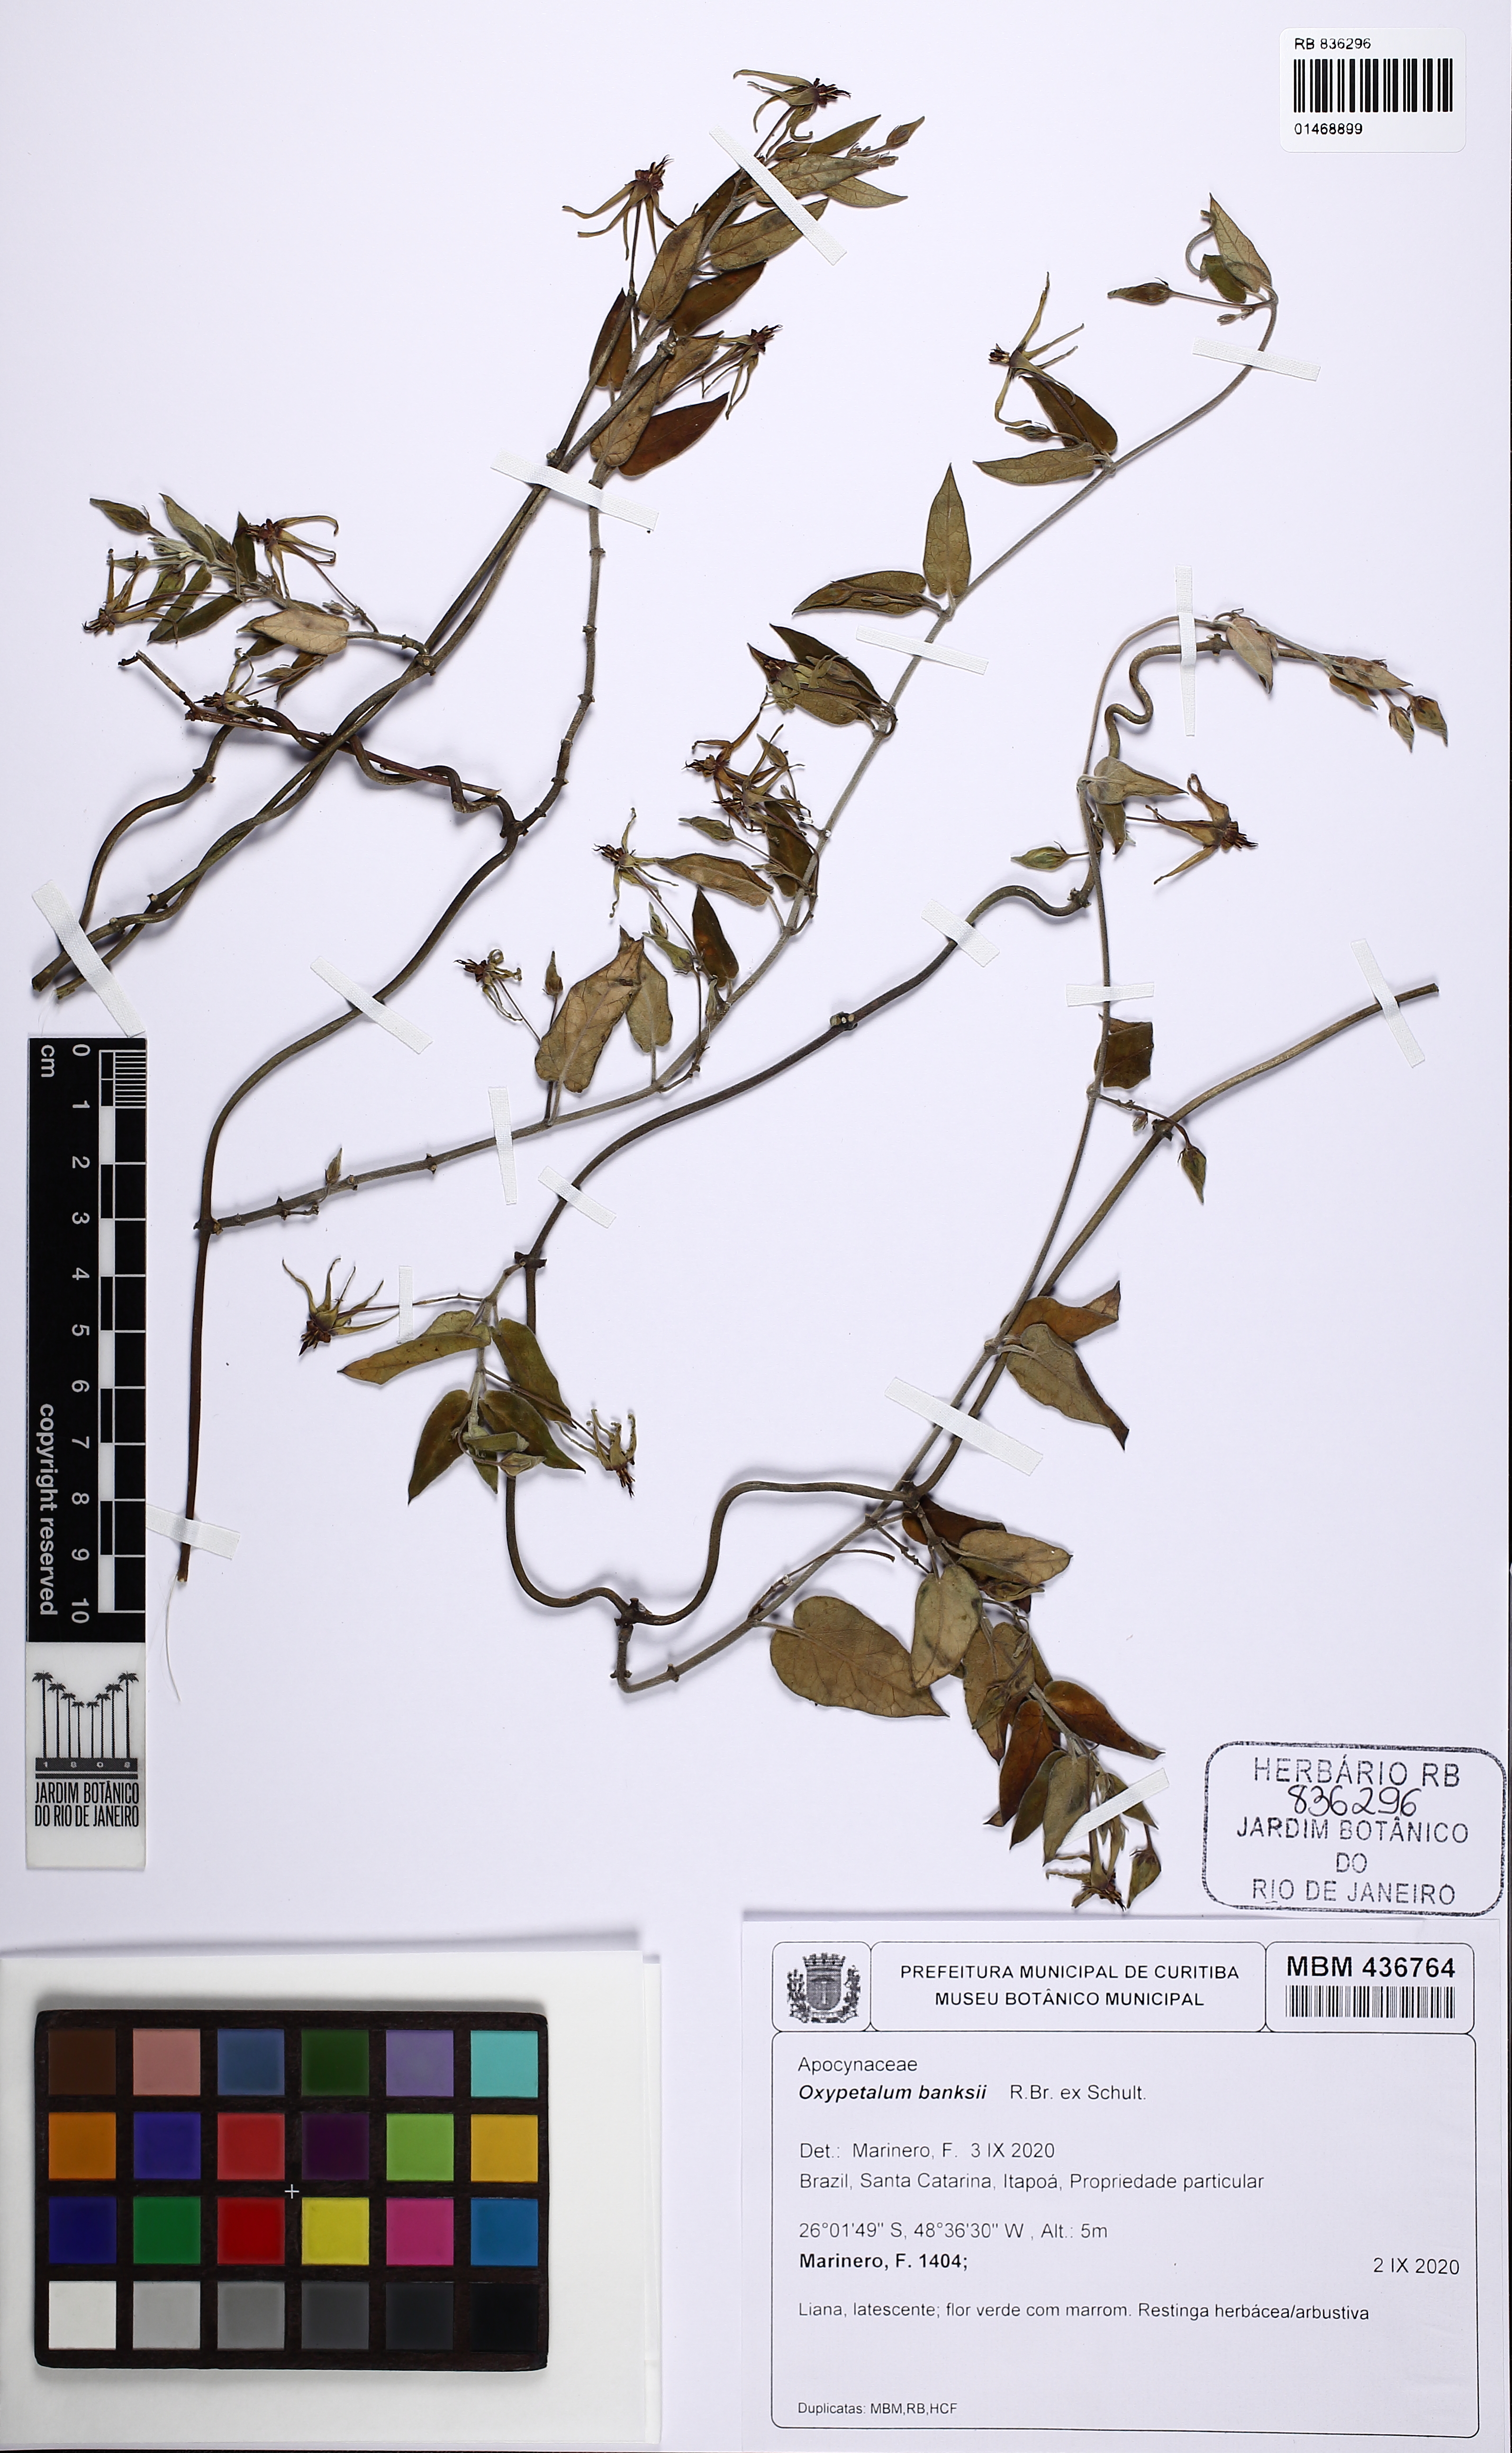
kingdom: Plantae
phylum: Tracheophyta
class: Magnoliopsida
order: Gentianales
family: Apocynaceae
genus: Oxypetalum
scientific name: Oxypetalum banksii
